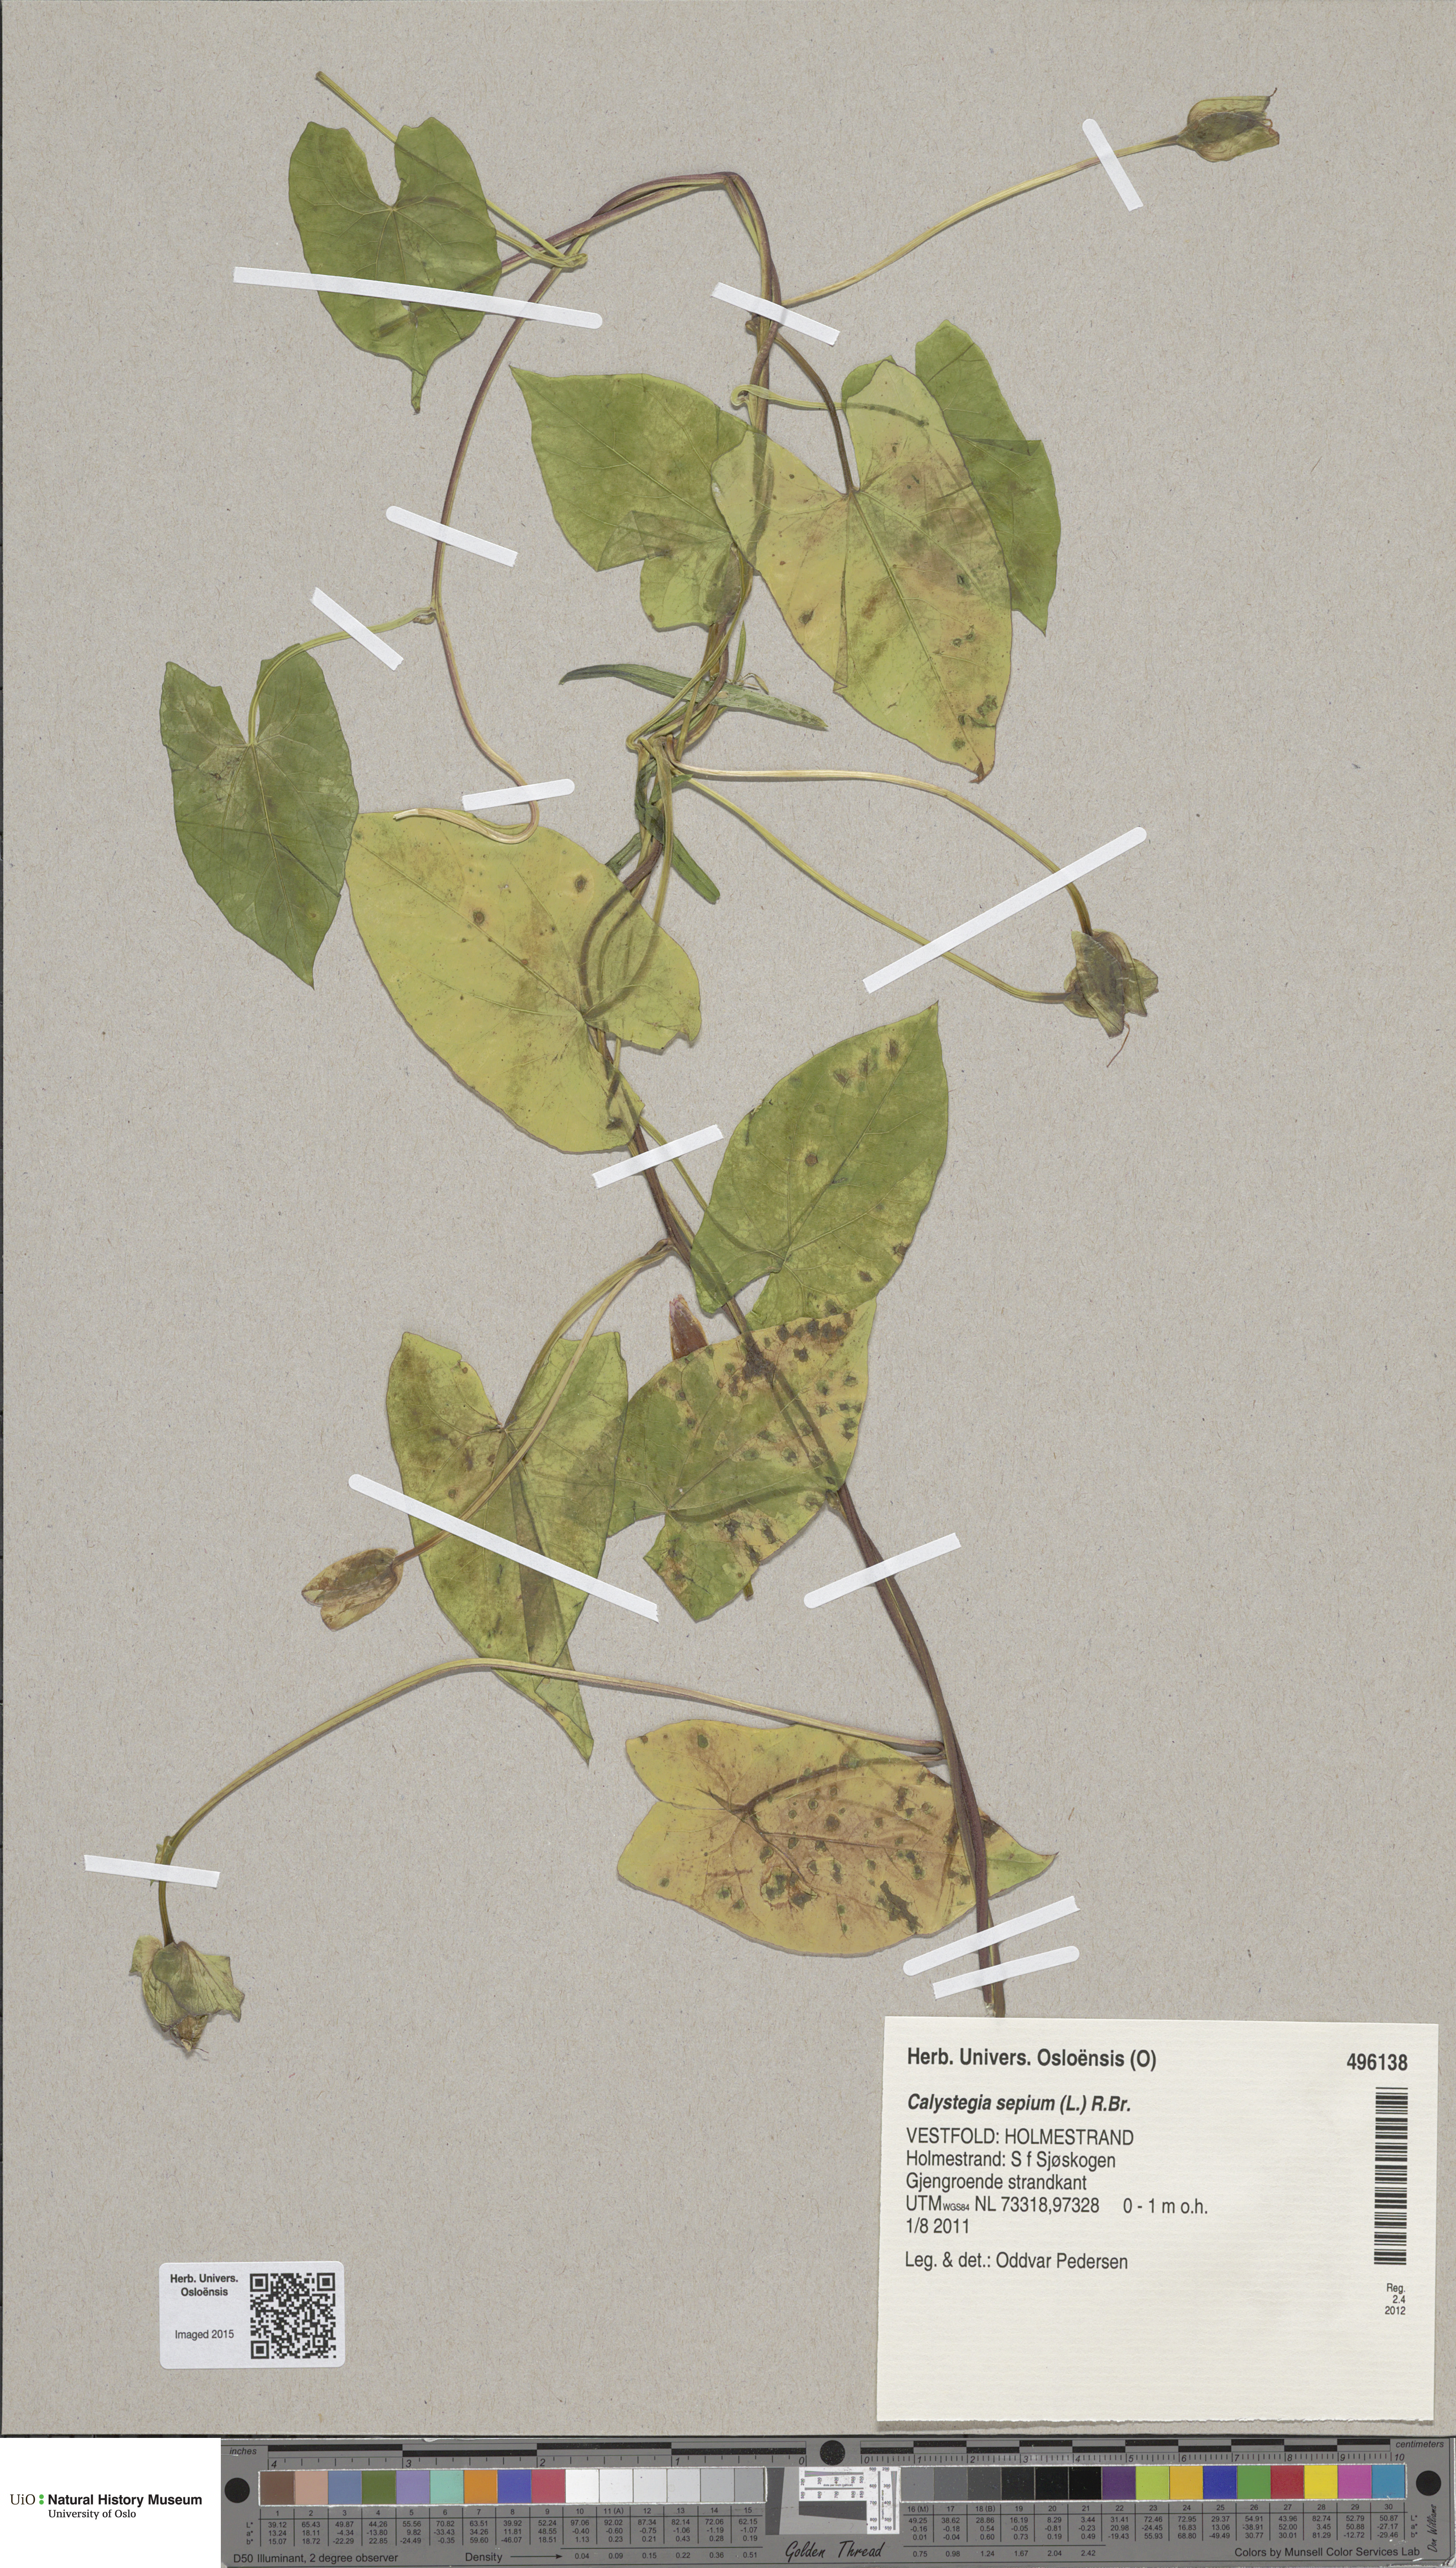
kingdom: Plantae
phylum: Tracheophyta
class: Magnoliopsida
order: Solanales
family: Convolvulaceae
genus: Calystegia
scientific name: Calystegia pulchra
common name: Hairy bindweed
